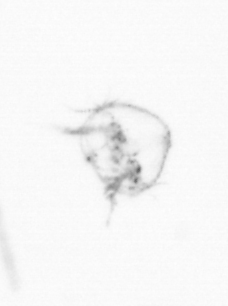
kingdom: Chromista
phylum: Ochrophyta
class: Bacillariophyceae
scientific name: Bacillariophyceae
